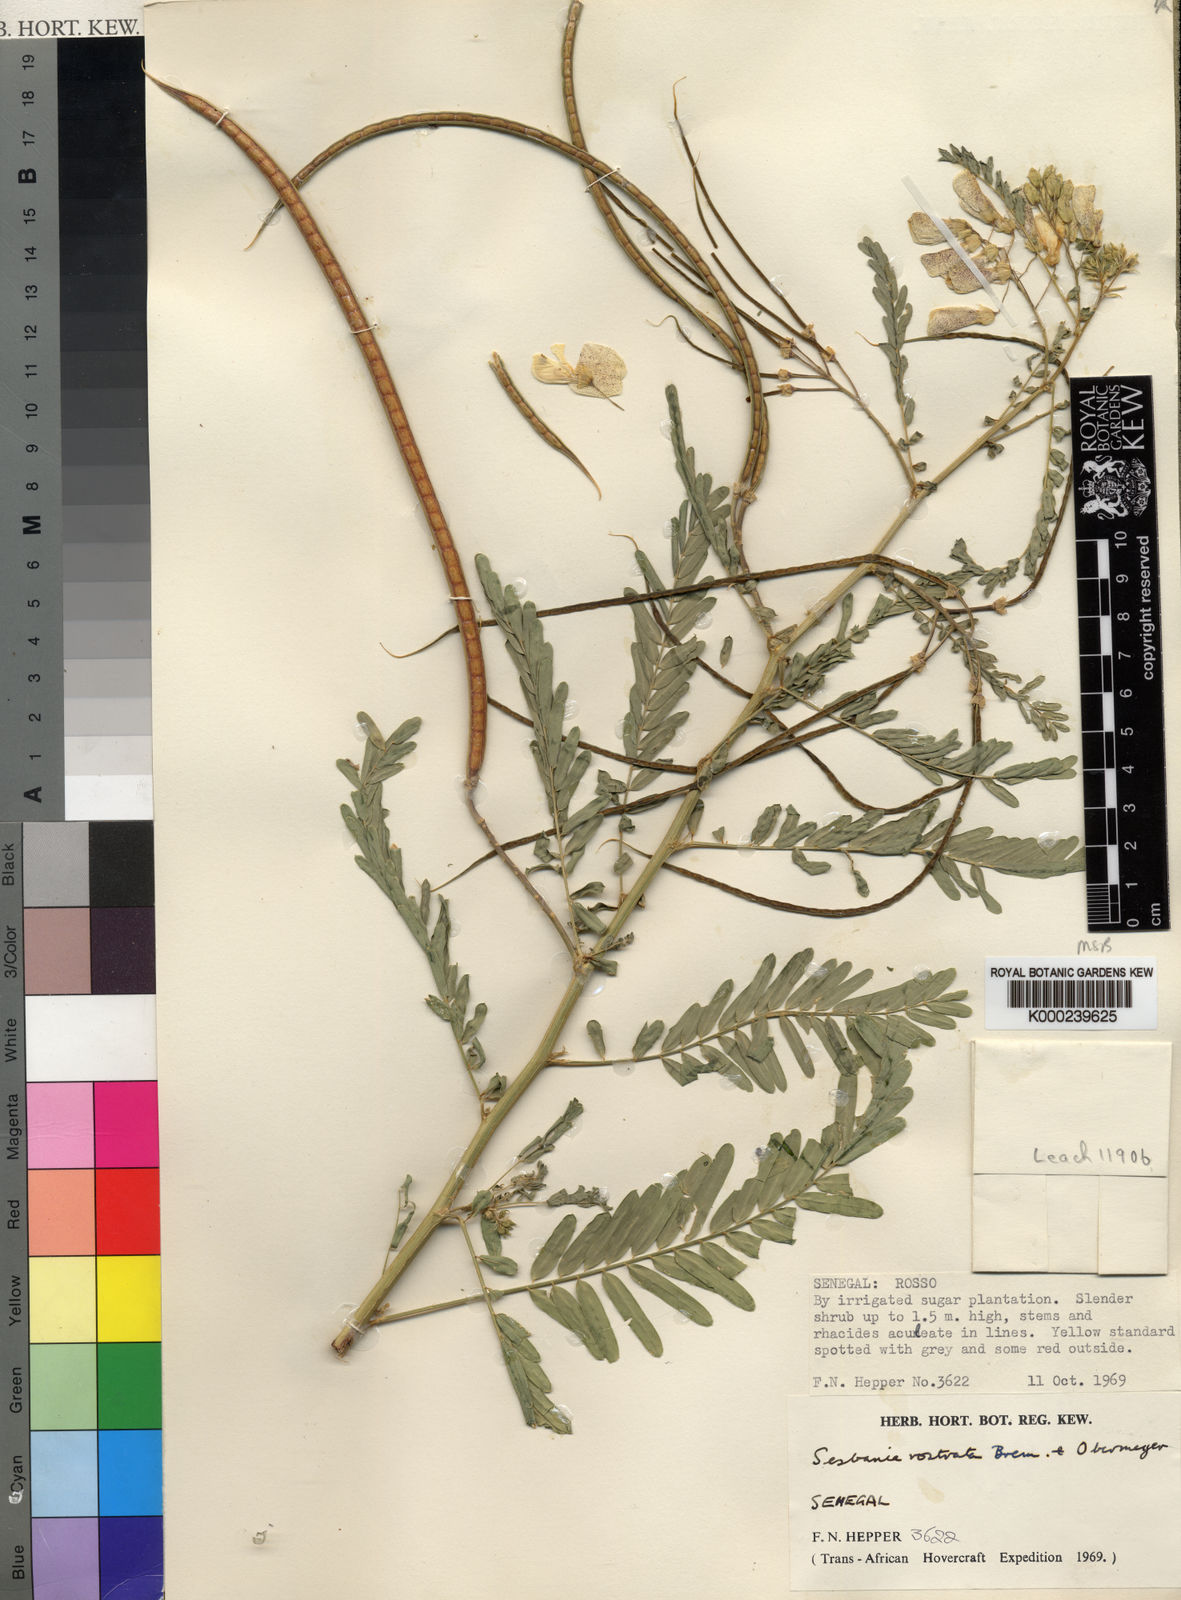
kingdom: Plantae
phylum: Tracheophyta
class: Magnoliopsida
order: Fabales
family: Fabaceae
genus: Sesbania
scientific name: Sesbania rostrata
